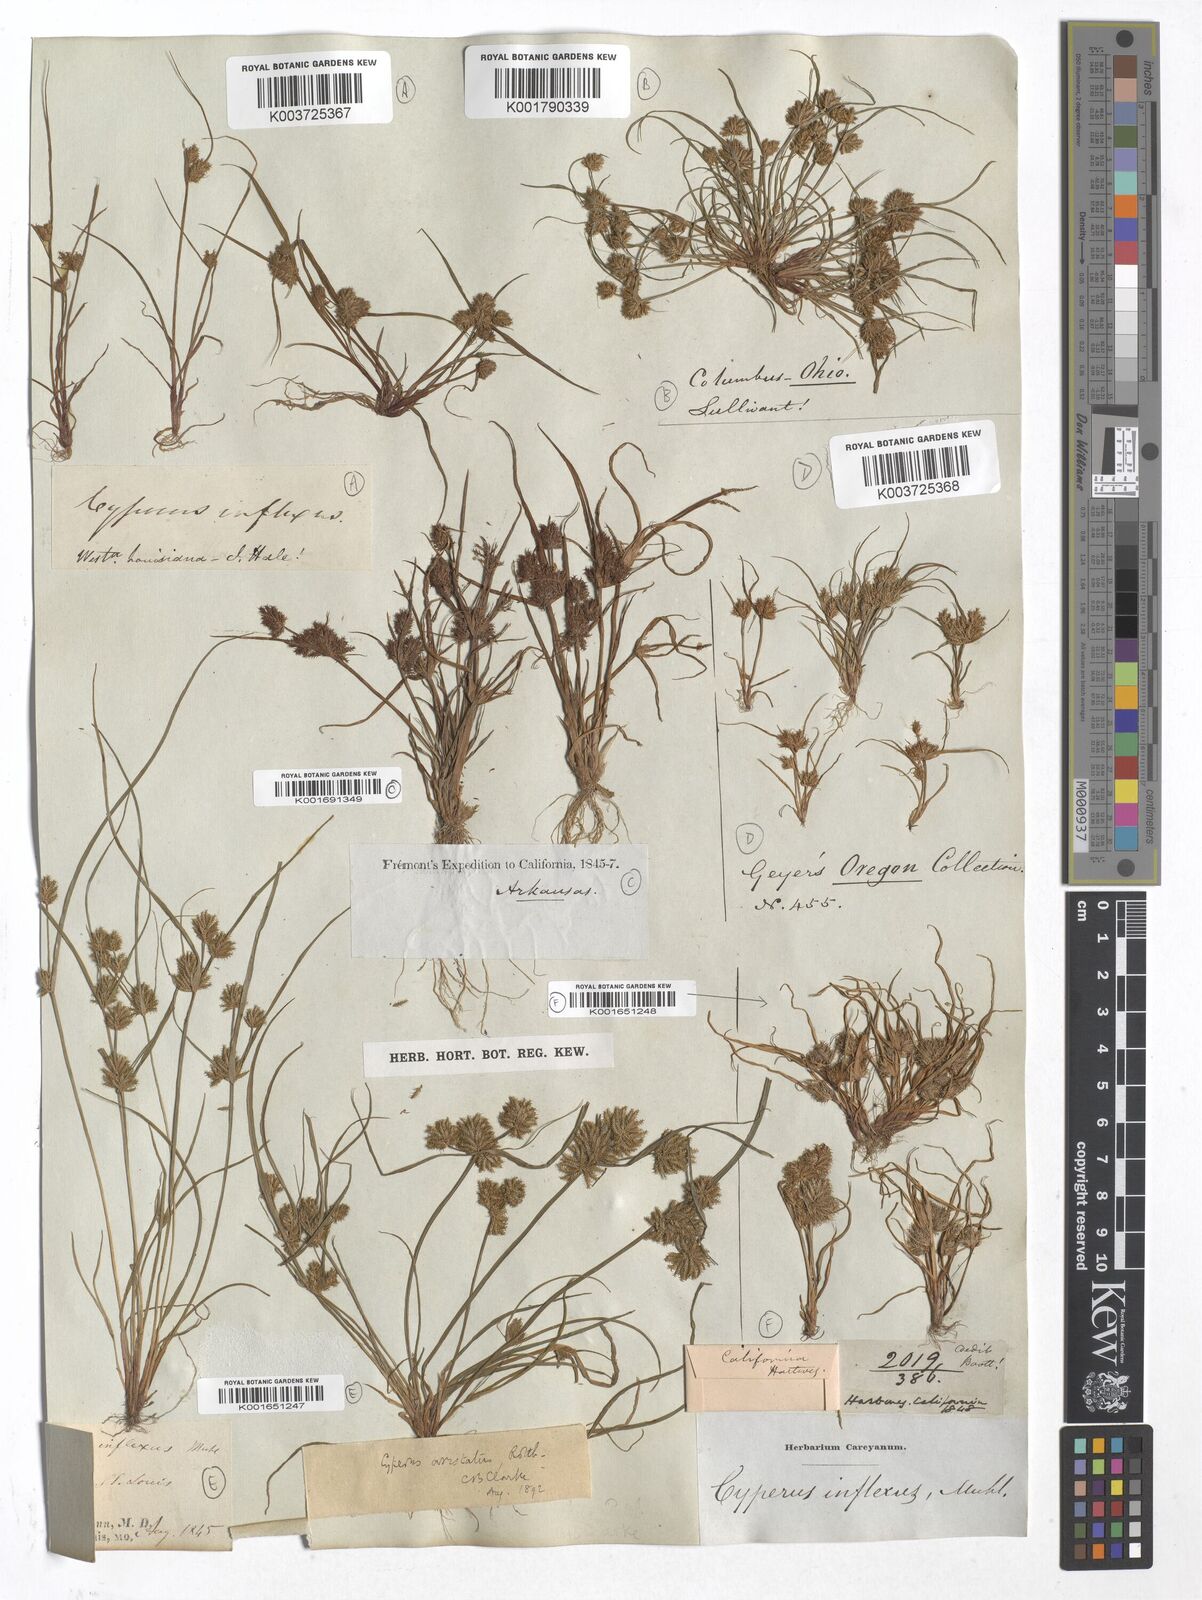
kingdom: Plantae
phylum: Tracheophyta
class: Liliopsida
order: Poales
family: Cyperaceae
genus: Cyperus
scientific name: Cyperus squarrosus
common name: Awned cyperus
